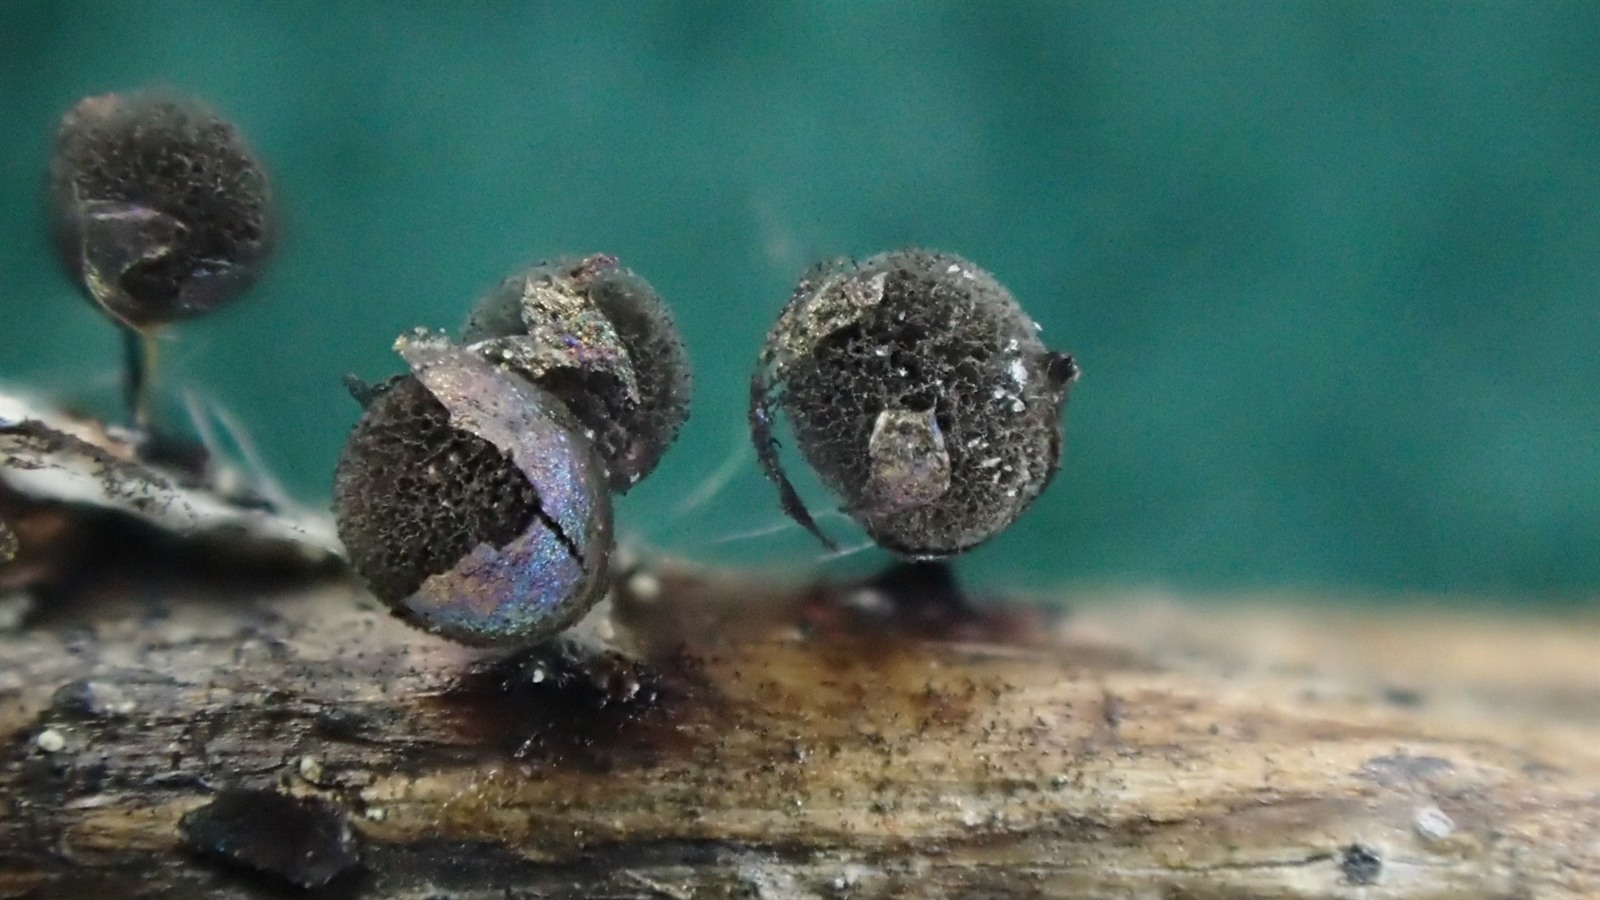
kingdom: Protozoa
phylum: Mycetozoa
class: Myxomycetes
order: Stemonitidales
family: Stemonitidaceae
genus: Lamproderma
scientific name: Lamproderma ovoideoechinulatum
